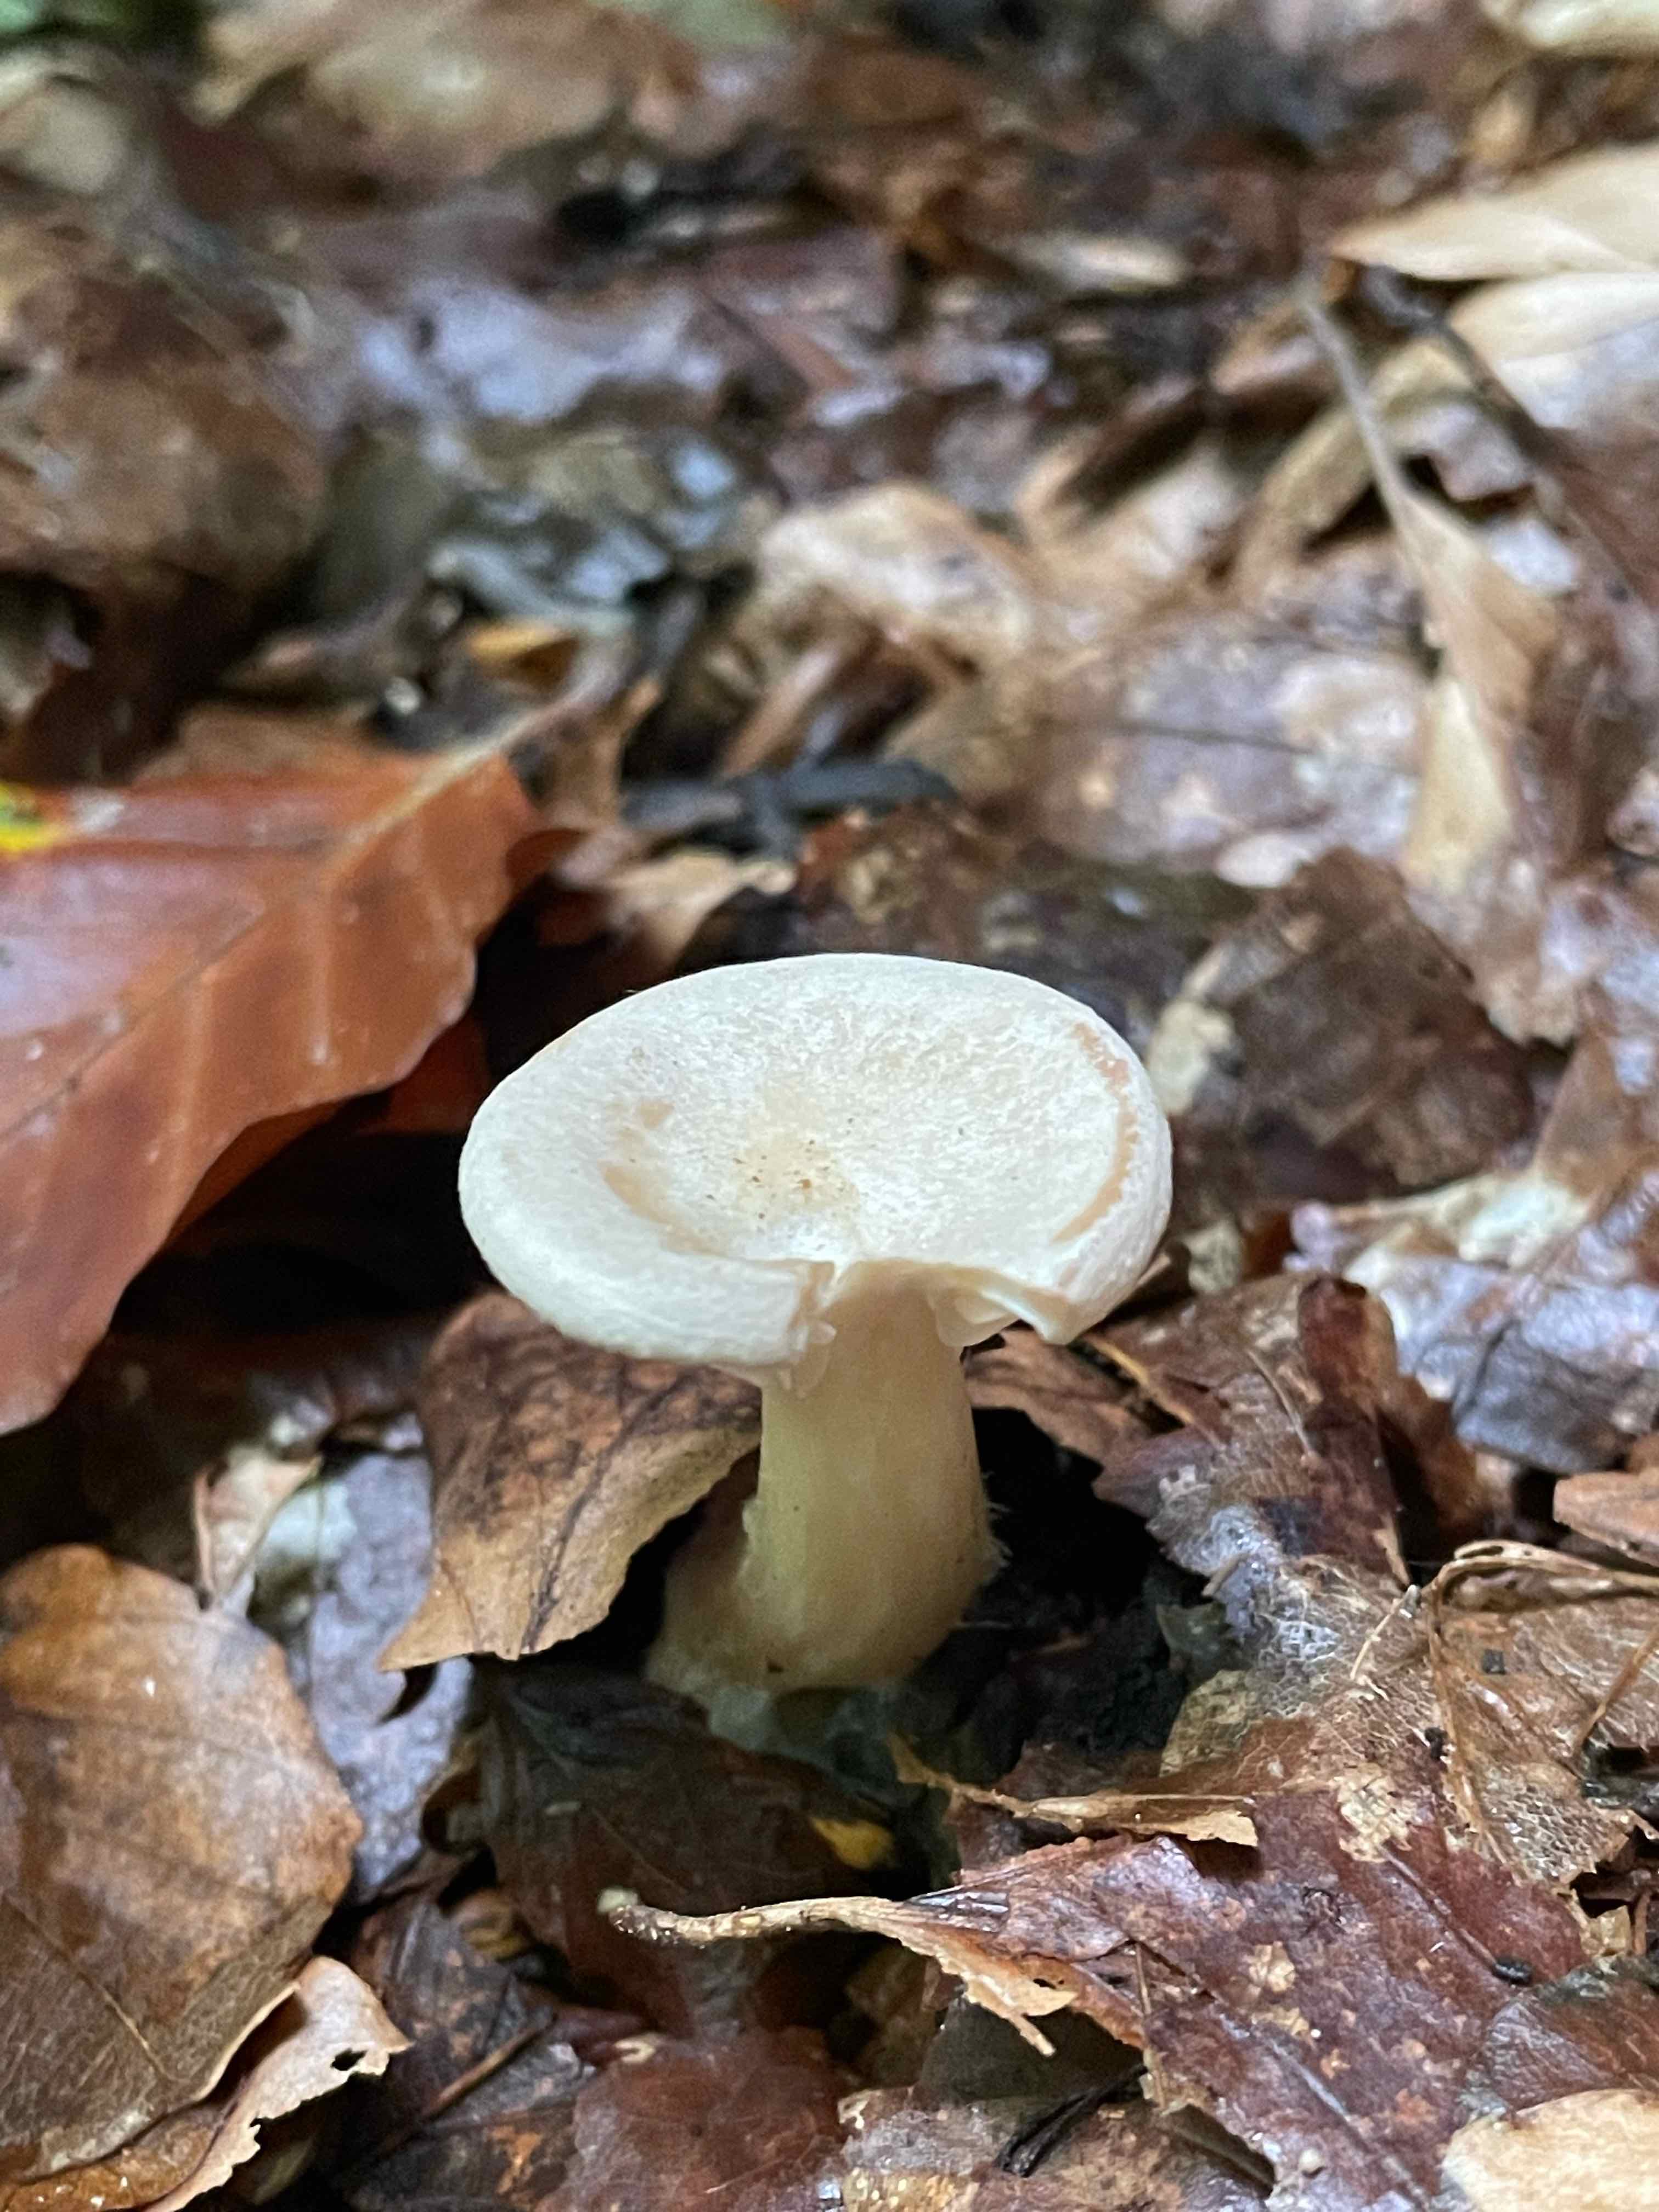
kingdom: Fungi
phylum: Basidiomycota
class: Agaricomycetes
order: Agaricales
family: Hygrophoraceae
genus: Ampulloclitocybe
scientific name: Ampulloclitocybe clavipes
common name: køllefod
